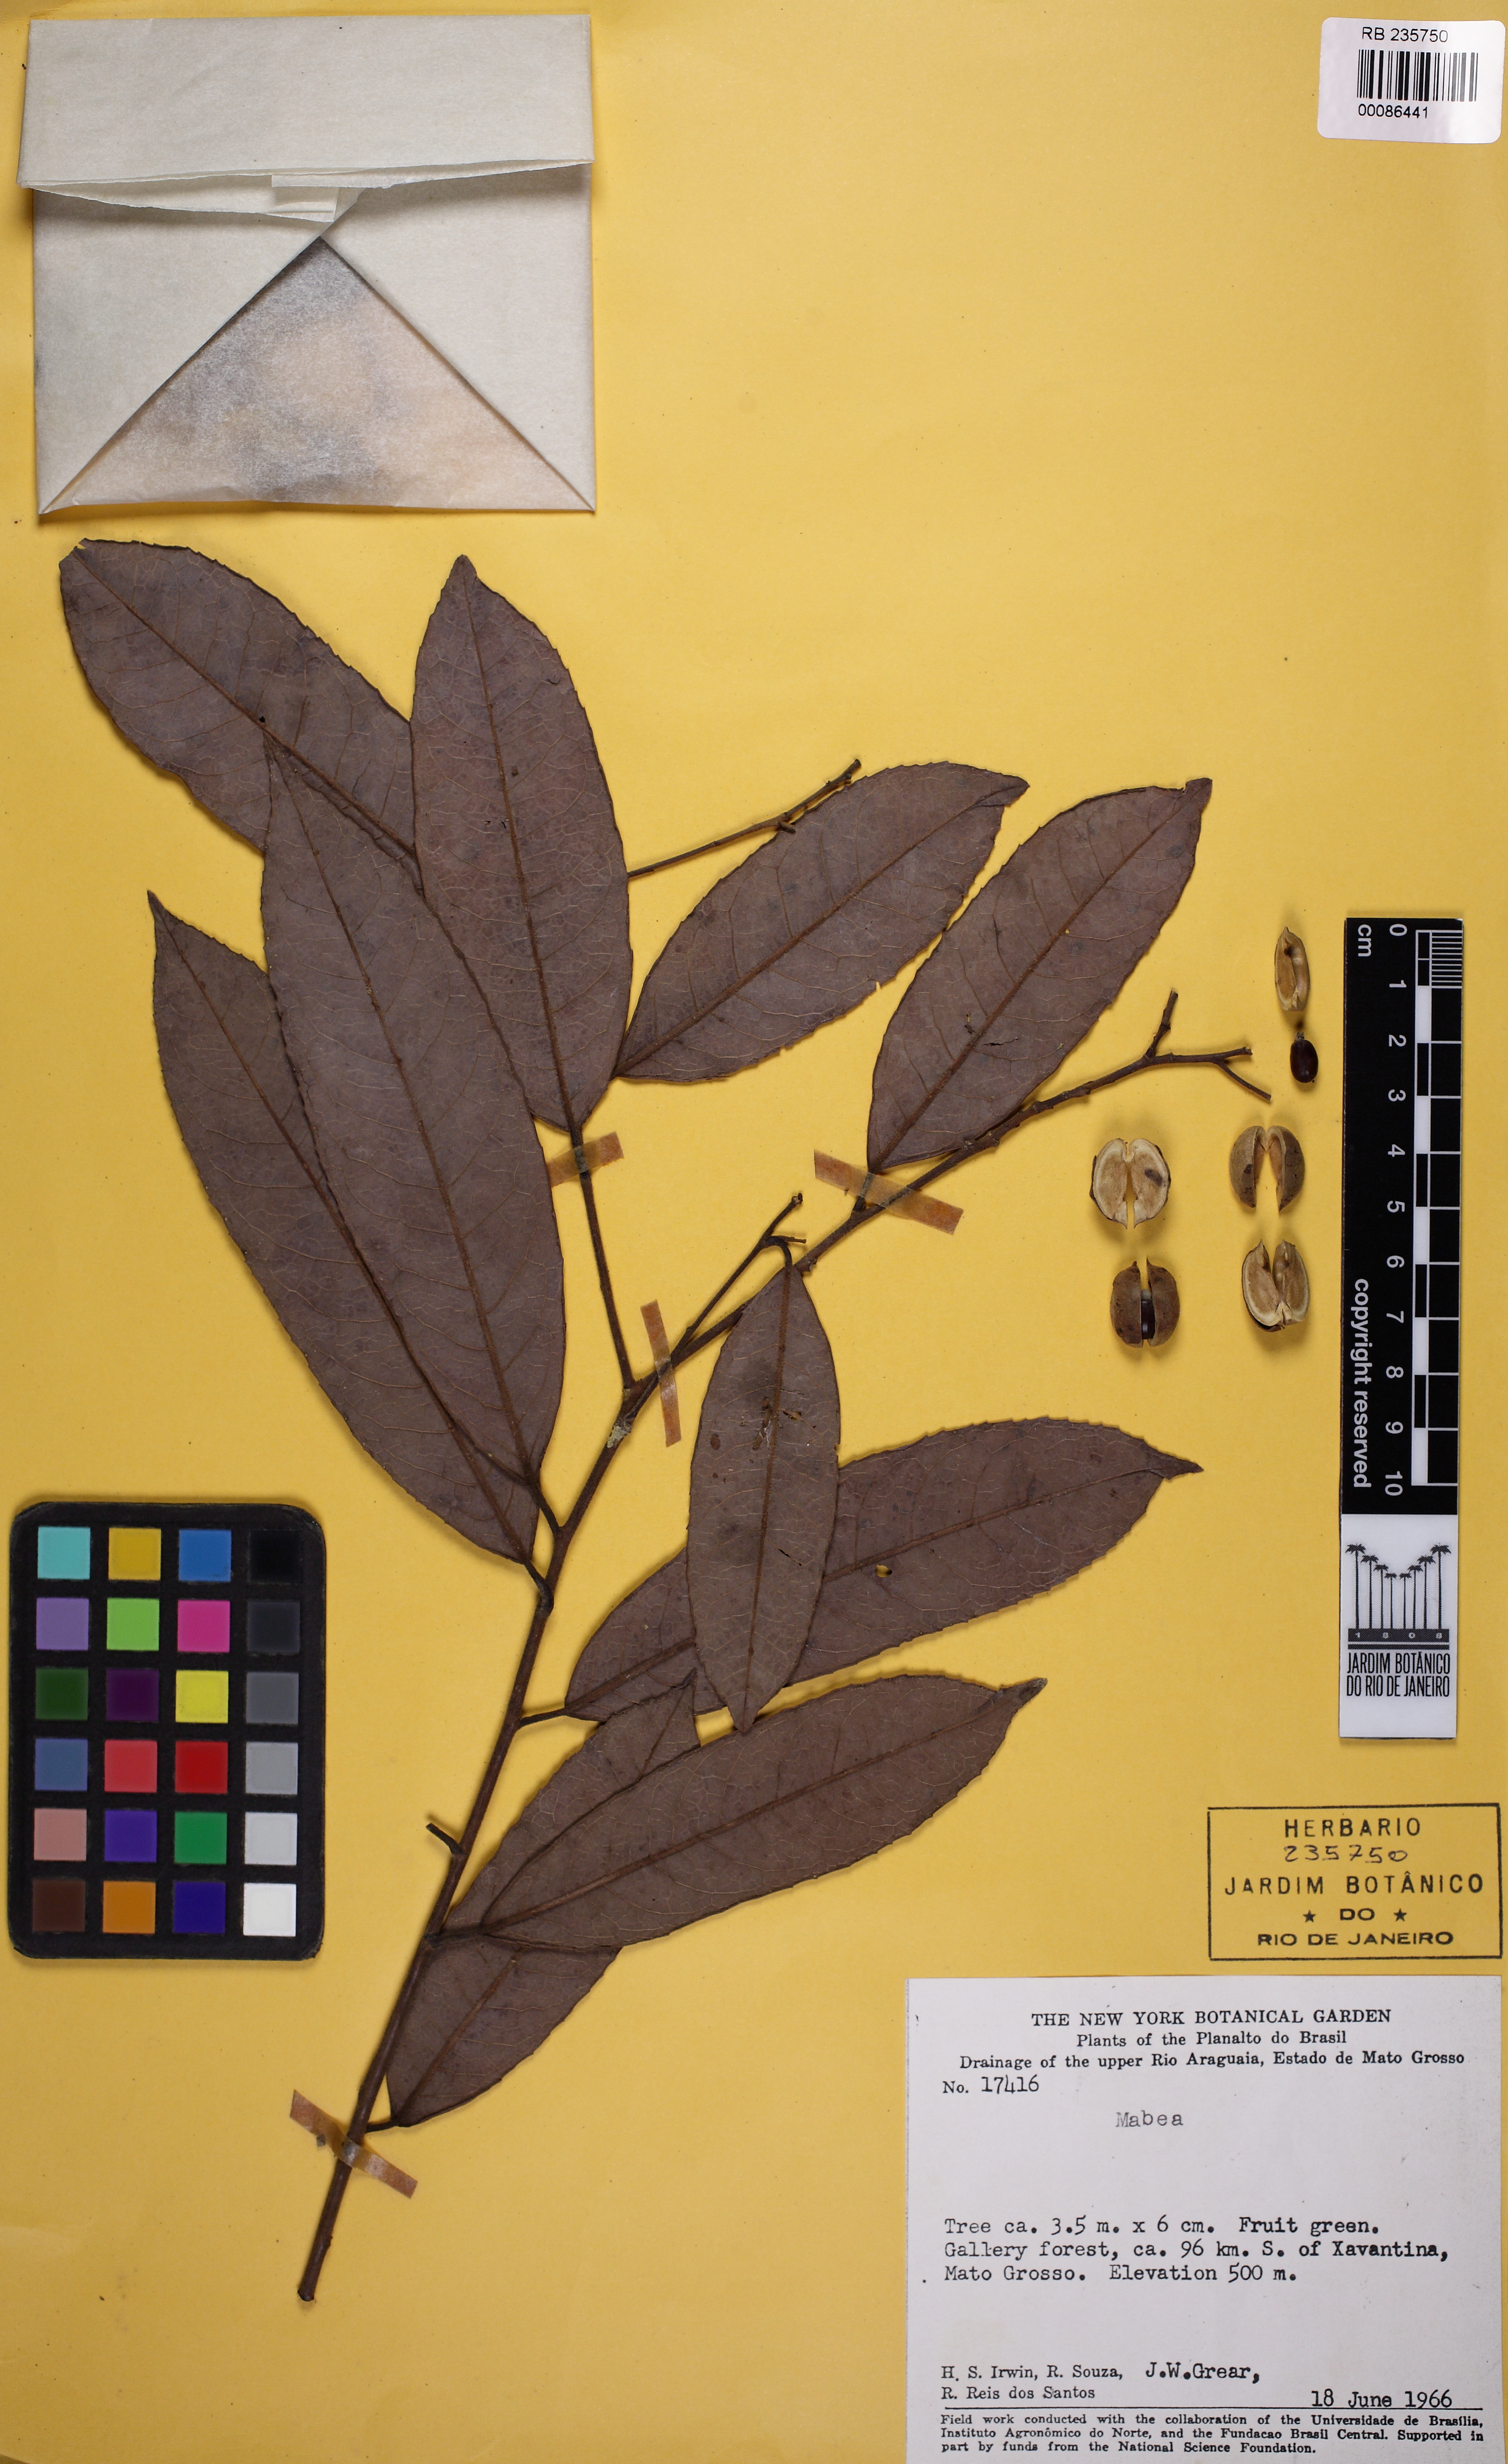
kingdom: Plantae
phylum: Tracheophyta
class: Magnoliopsida
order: Malpighiales
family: Euphorbiaceae
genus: Mabea
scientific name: Mabea
